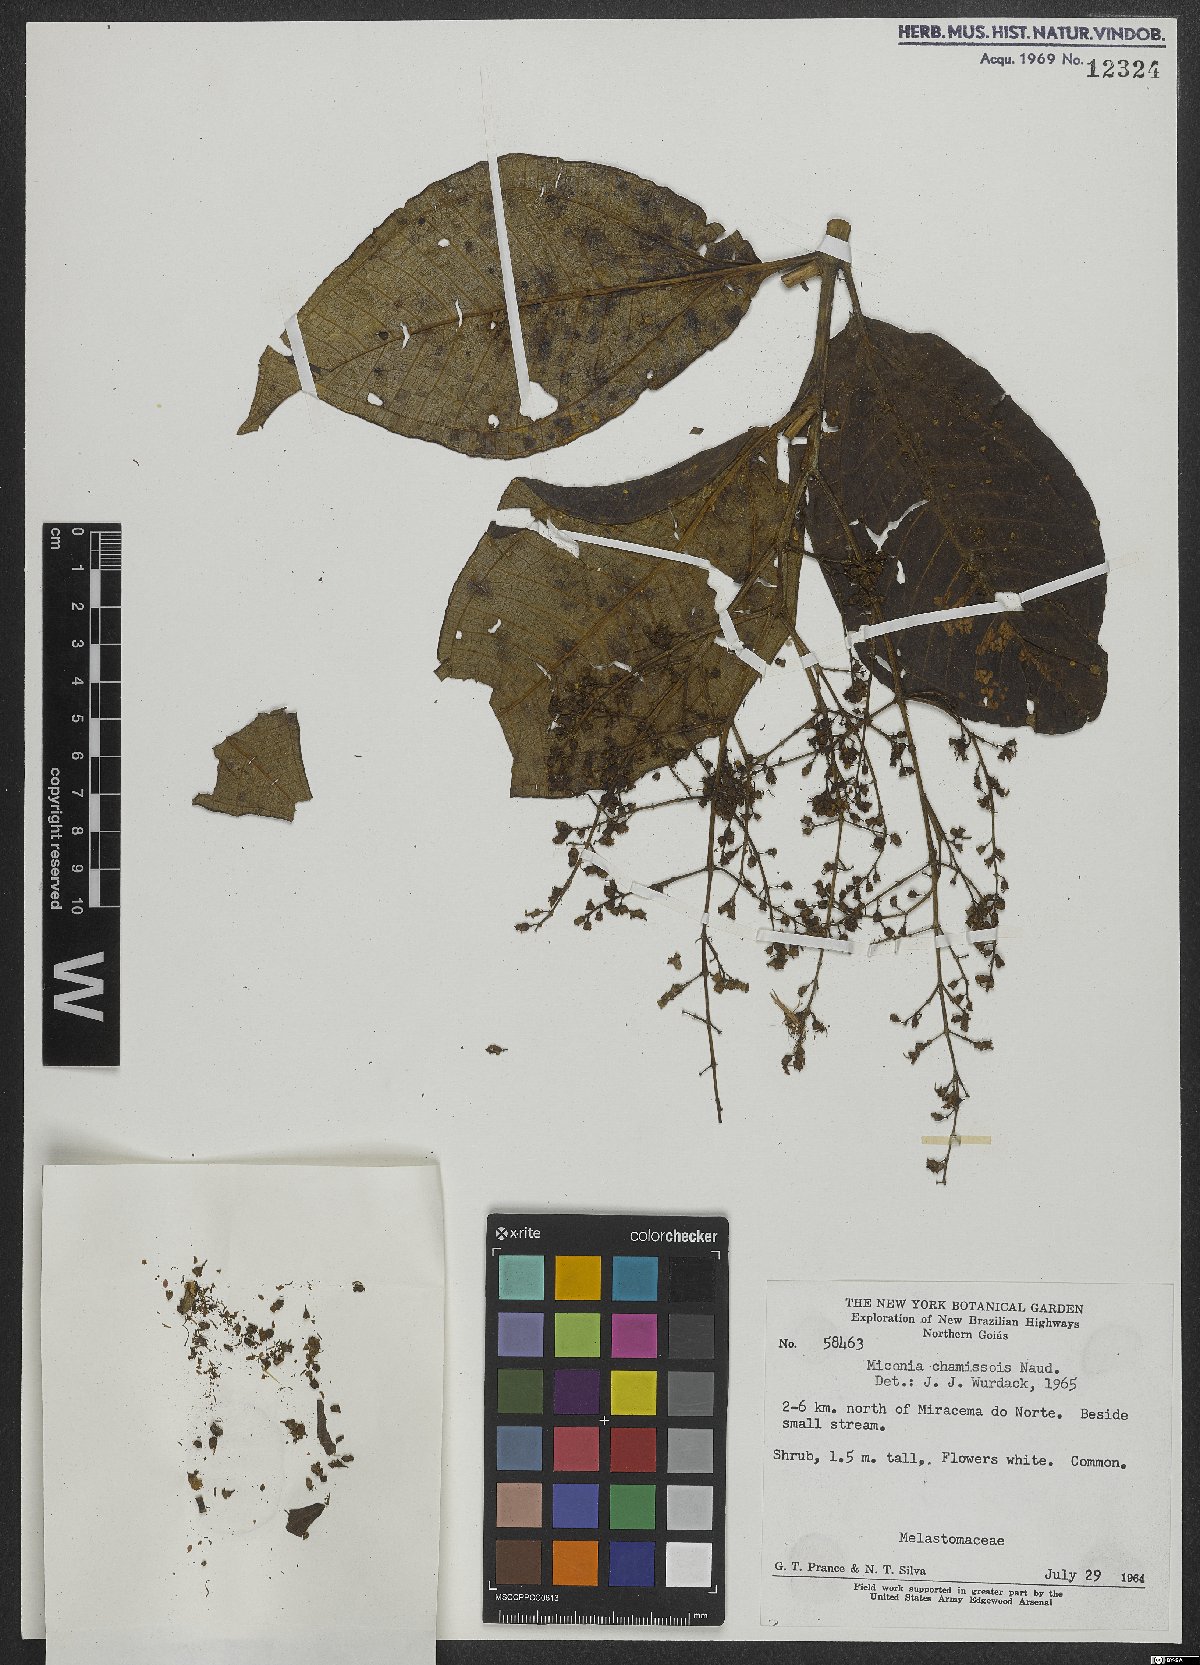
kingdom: Plantae
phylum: Tracheophyta
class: Magnoliopsida
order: Myrtales
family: Melastomataceae
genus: Miconia
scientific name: Miconia chamissois
